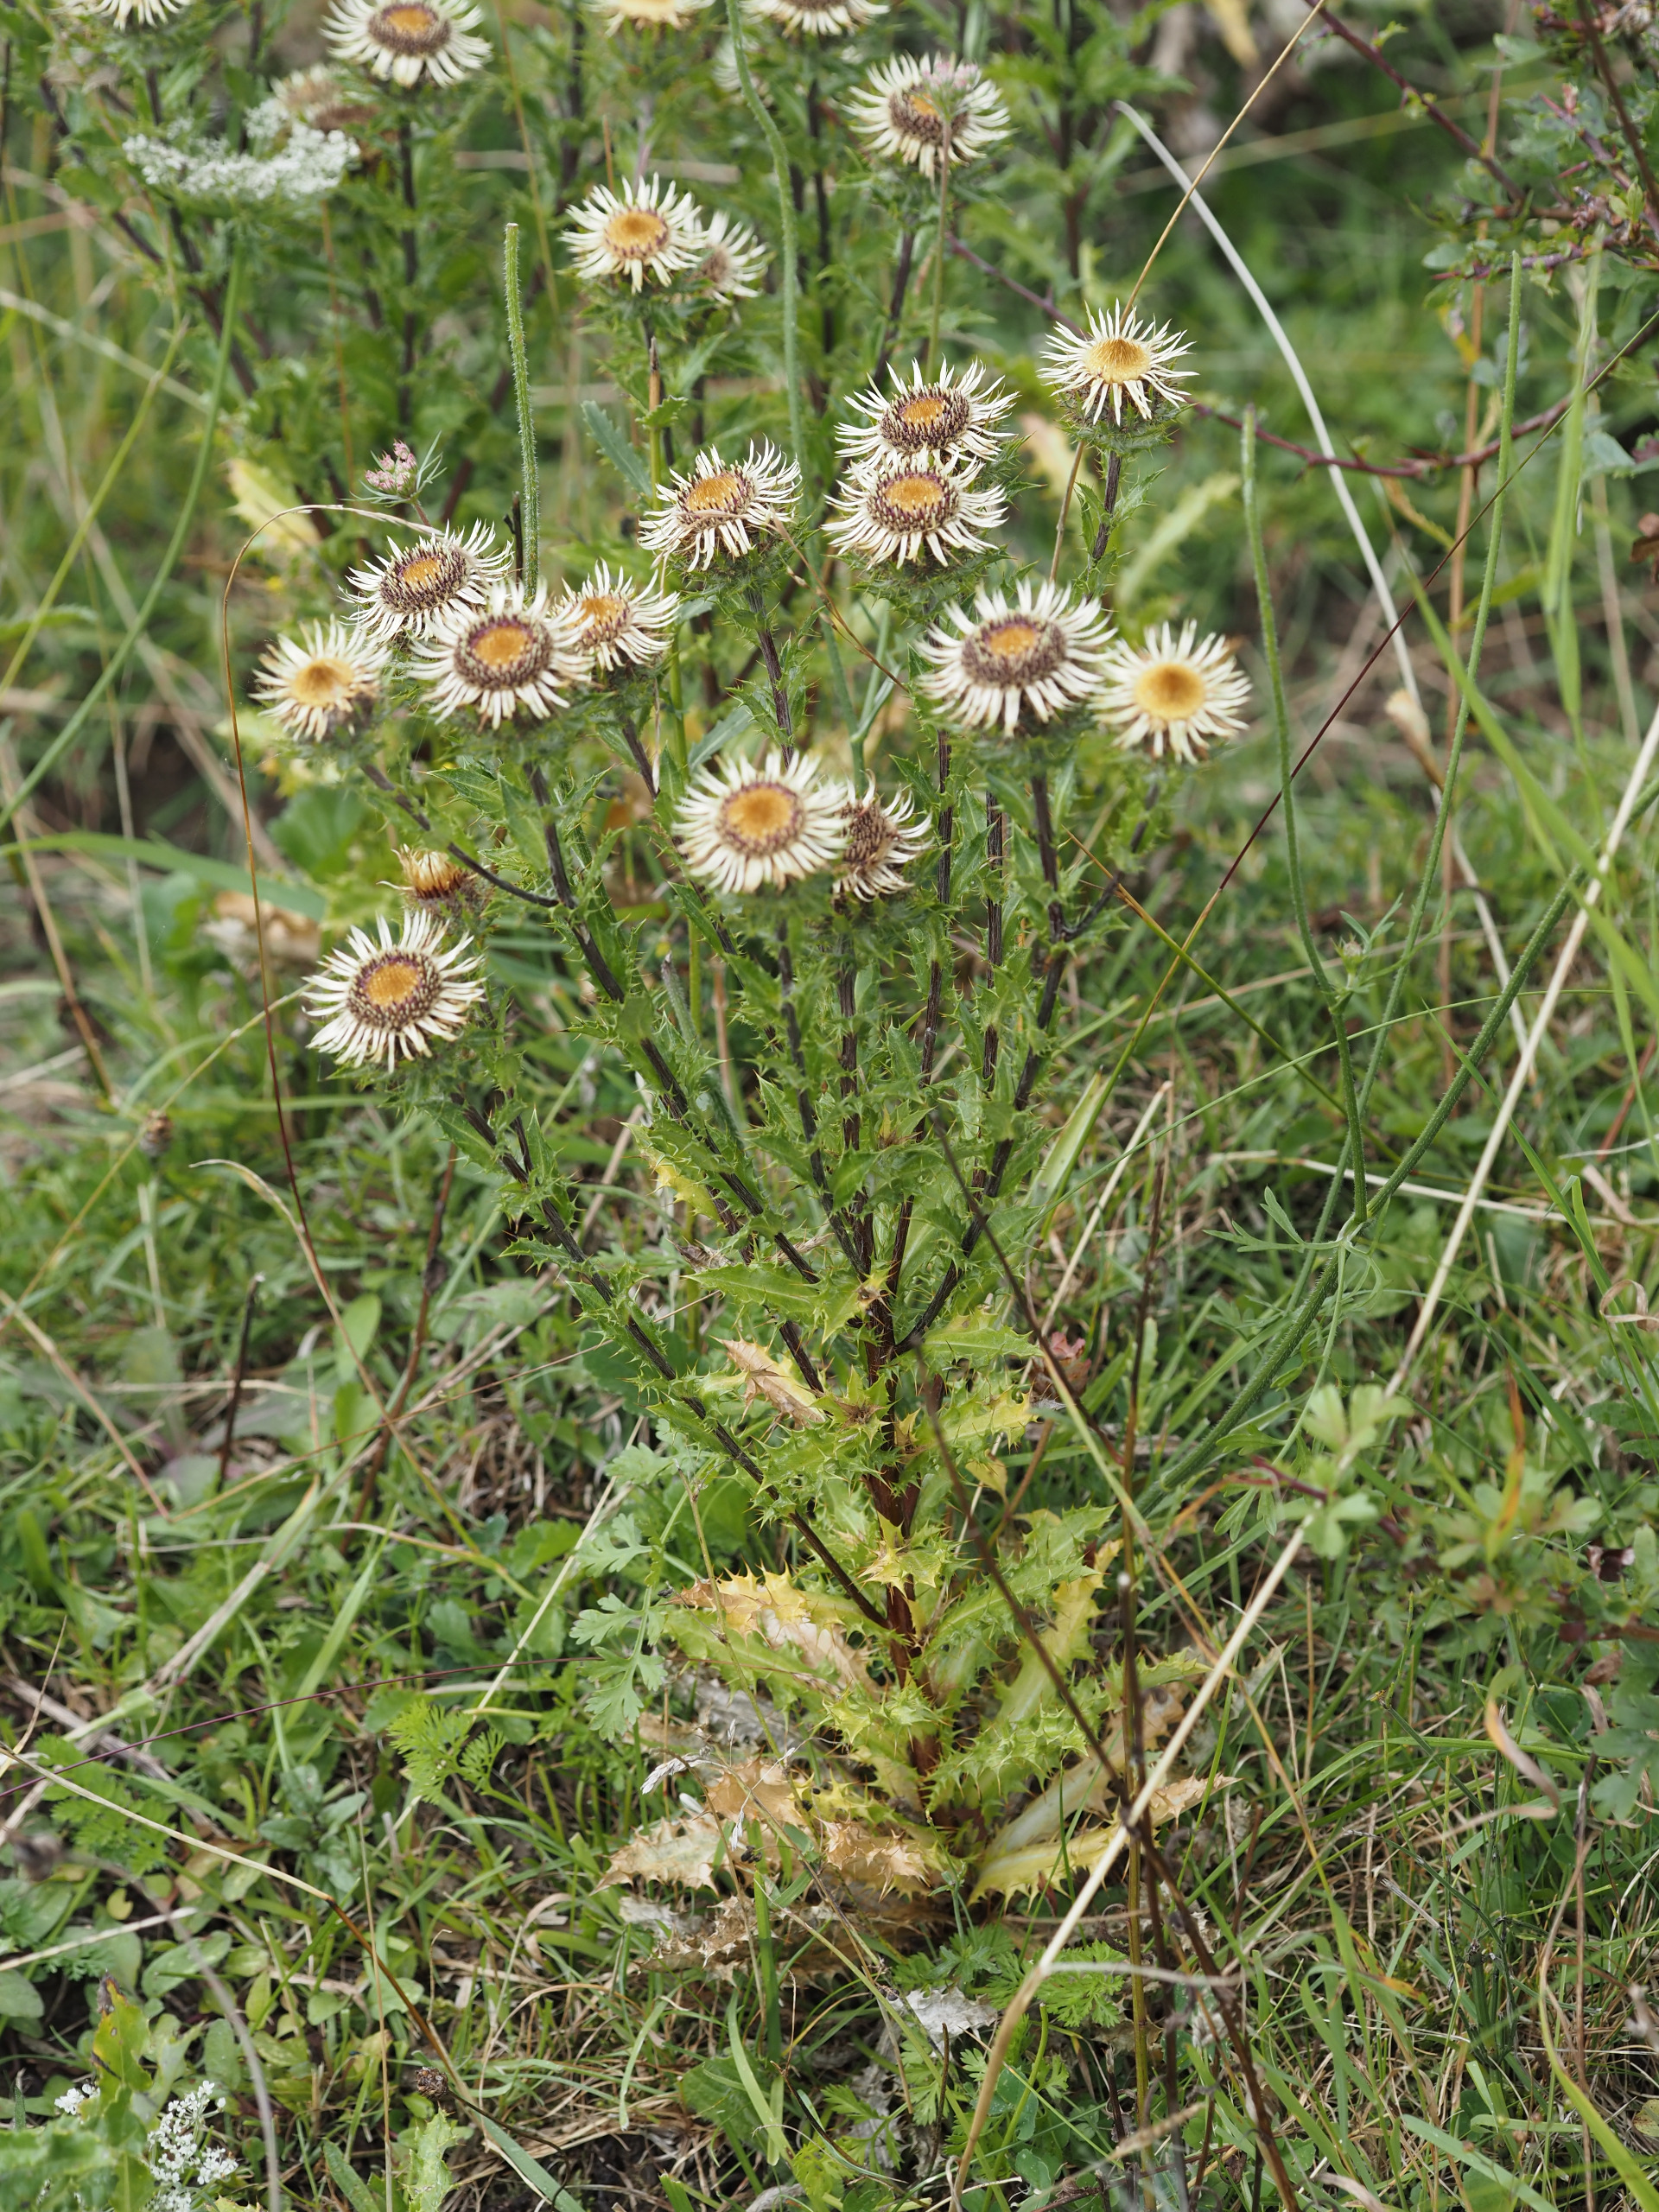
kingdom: Plantae
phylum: Tracheophyta
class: Magnoliopsida
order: Asterales
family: Asteraceae
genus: Carlina
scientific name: Carlina vulgaris
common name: Bakketidsel
